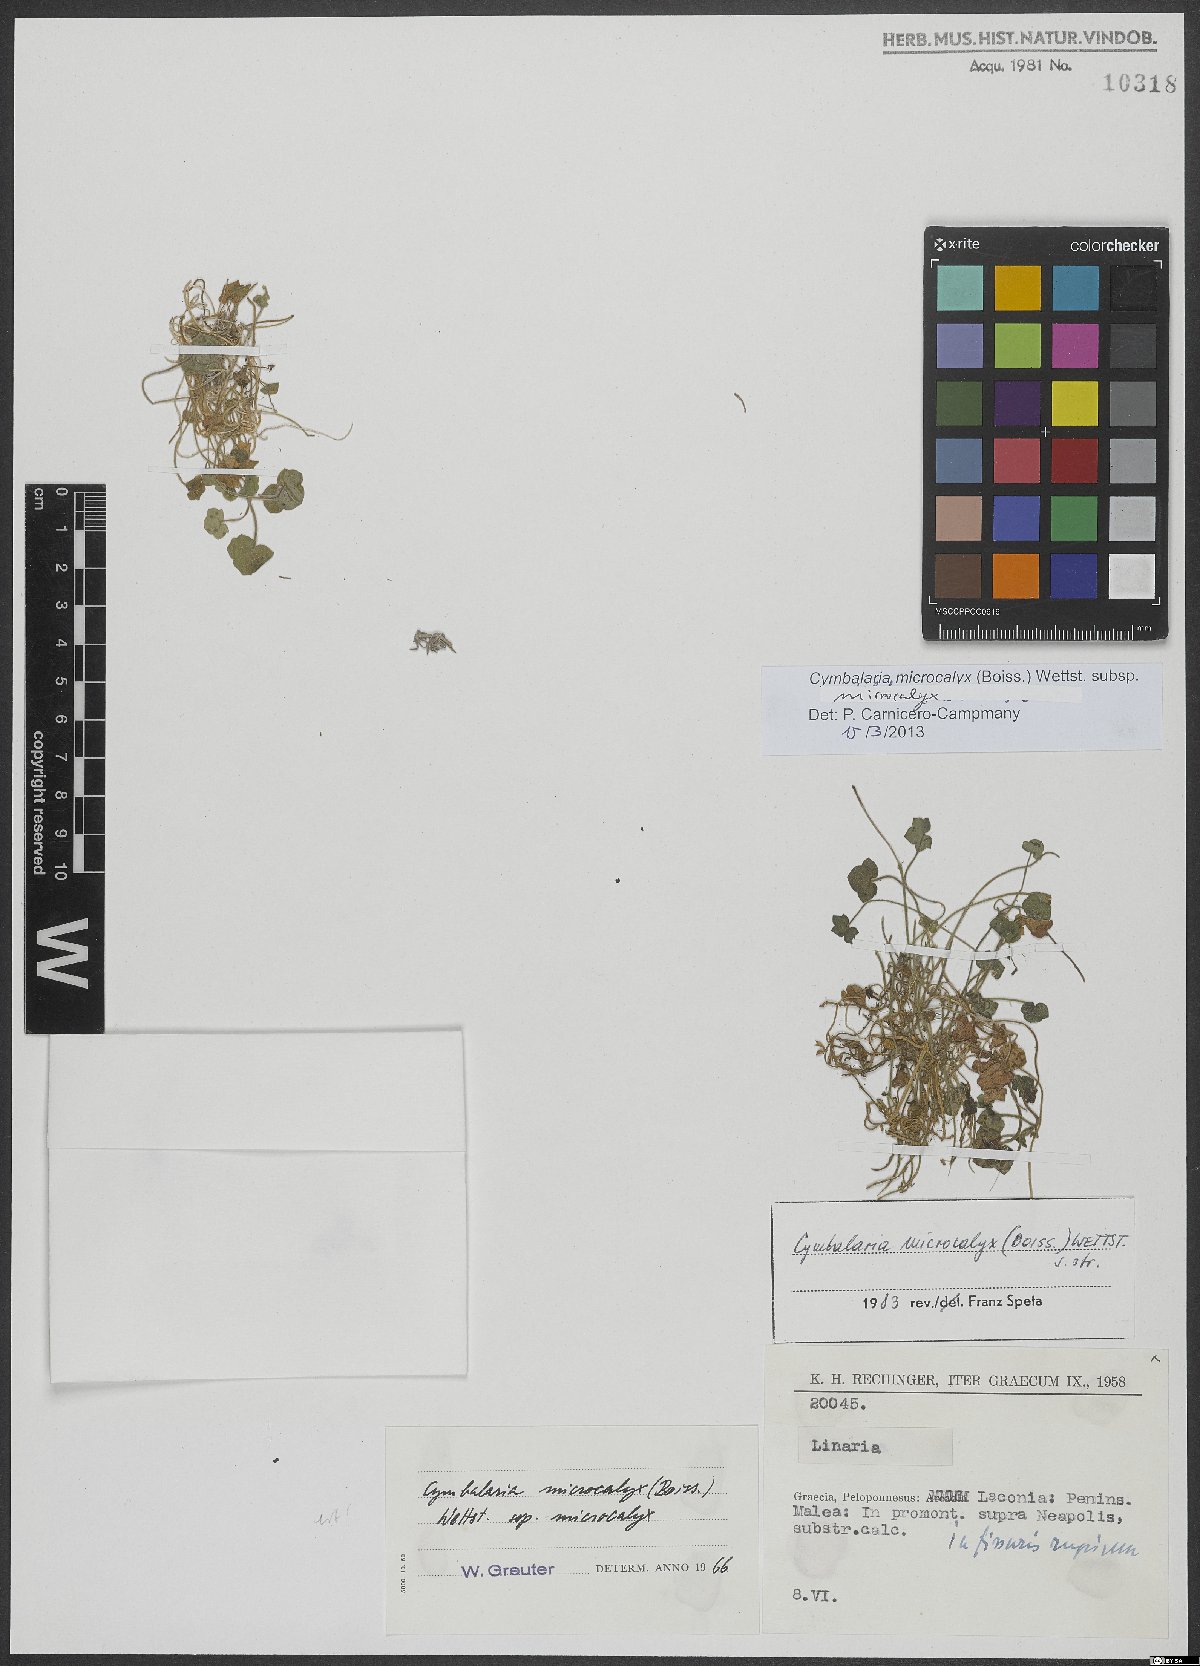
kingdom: Plantae
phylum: Tracheophyta
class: Magnoliopsida
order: Lamiales
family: Plantaginaceae
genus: Cymbalaria
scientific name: Cymbalaria microcalyx
